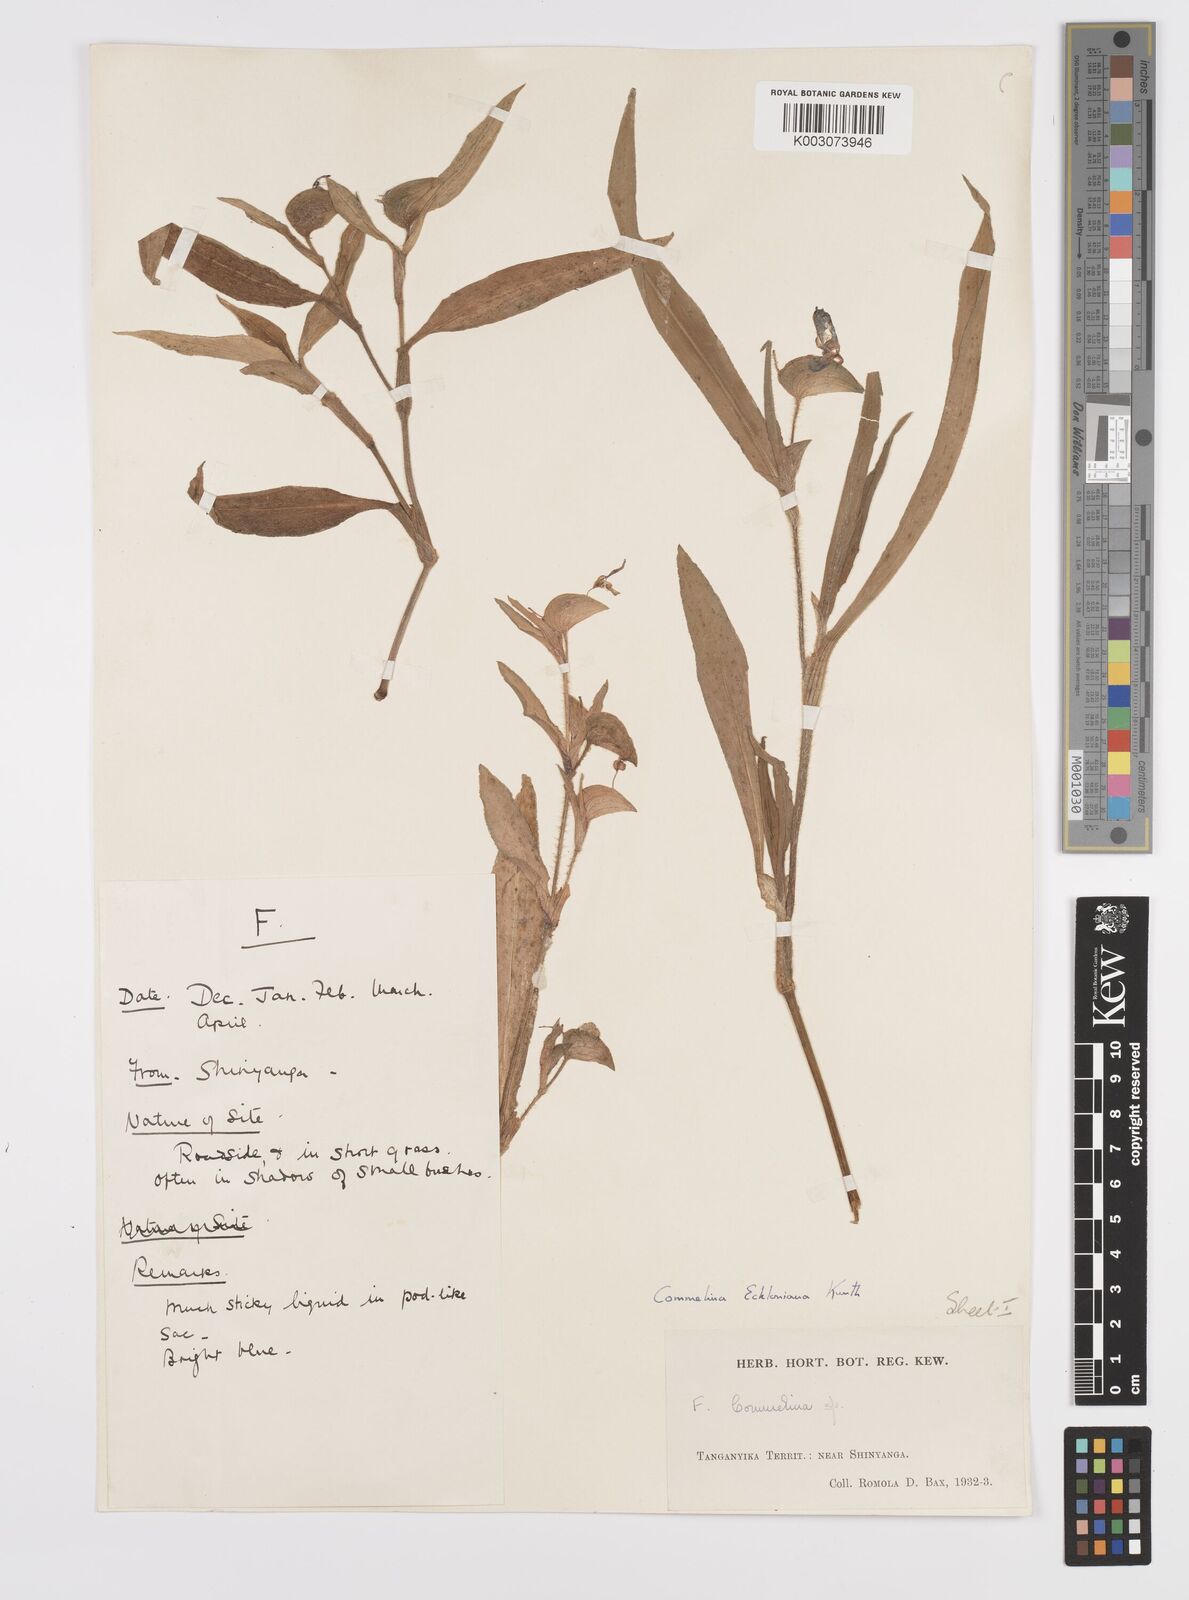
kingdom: Plantae
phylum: Tracheophyta
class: Liliopsida
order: Commelinales
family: Commelinaceae
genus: Commelina
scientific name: Commelina eckloniana
